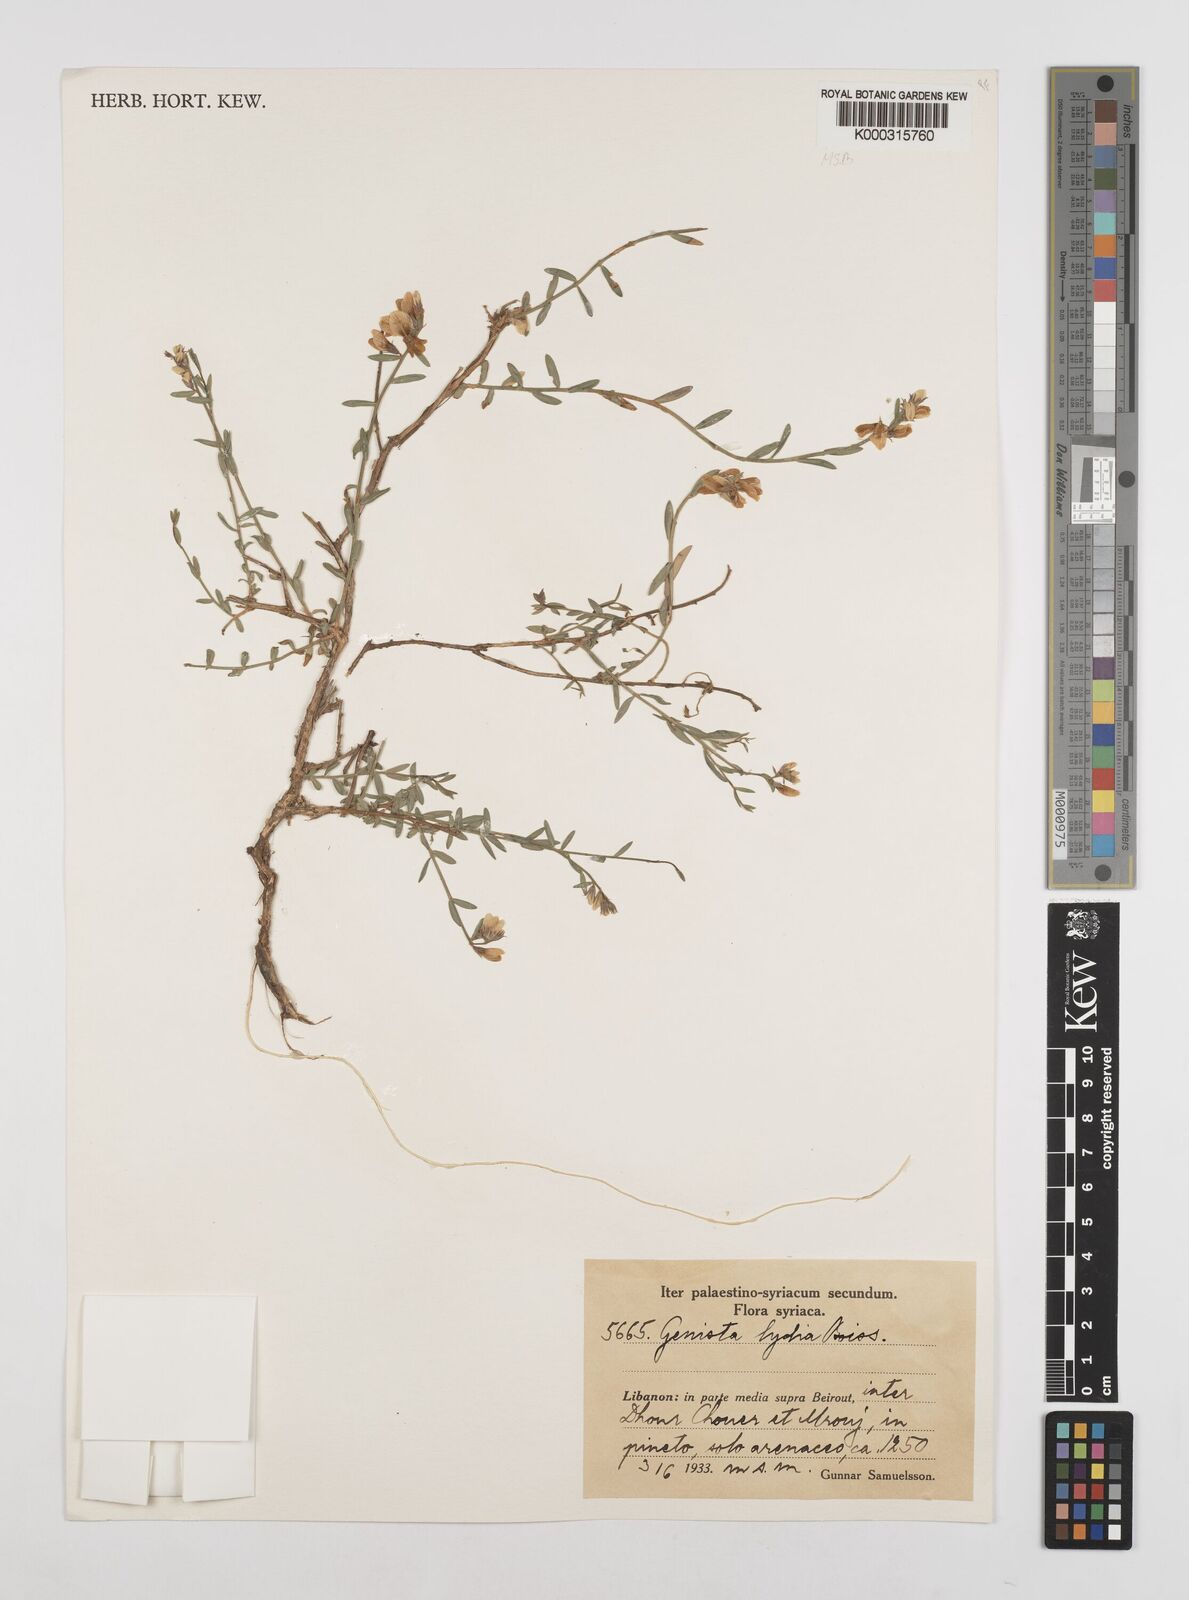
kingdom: Plantae
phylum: Tracheophyta
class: Magnoliopsida
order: Fabales
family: Fabaceae
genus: Genista
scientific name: Genista lydia
